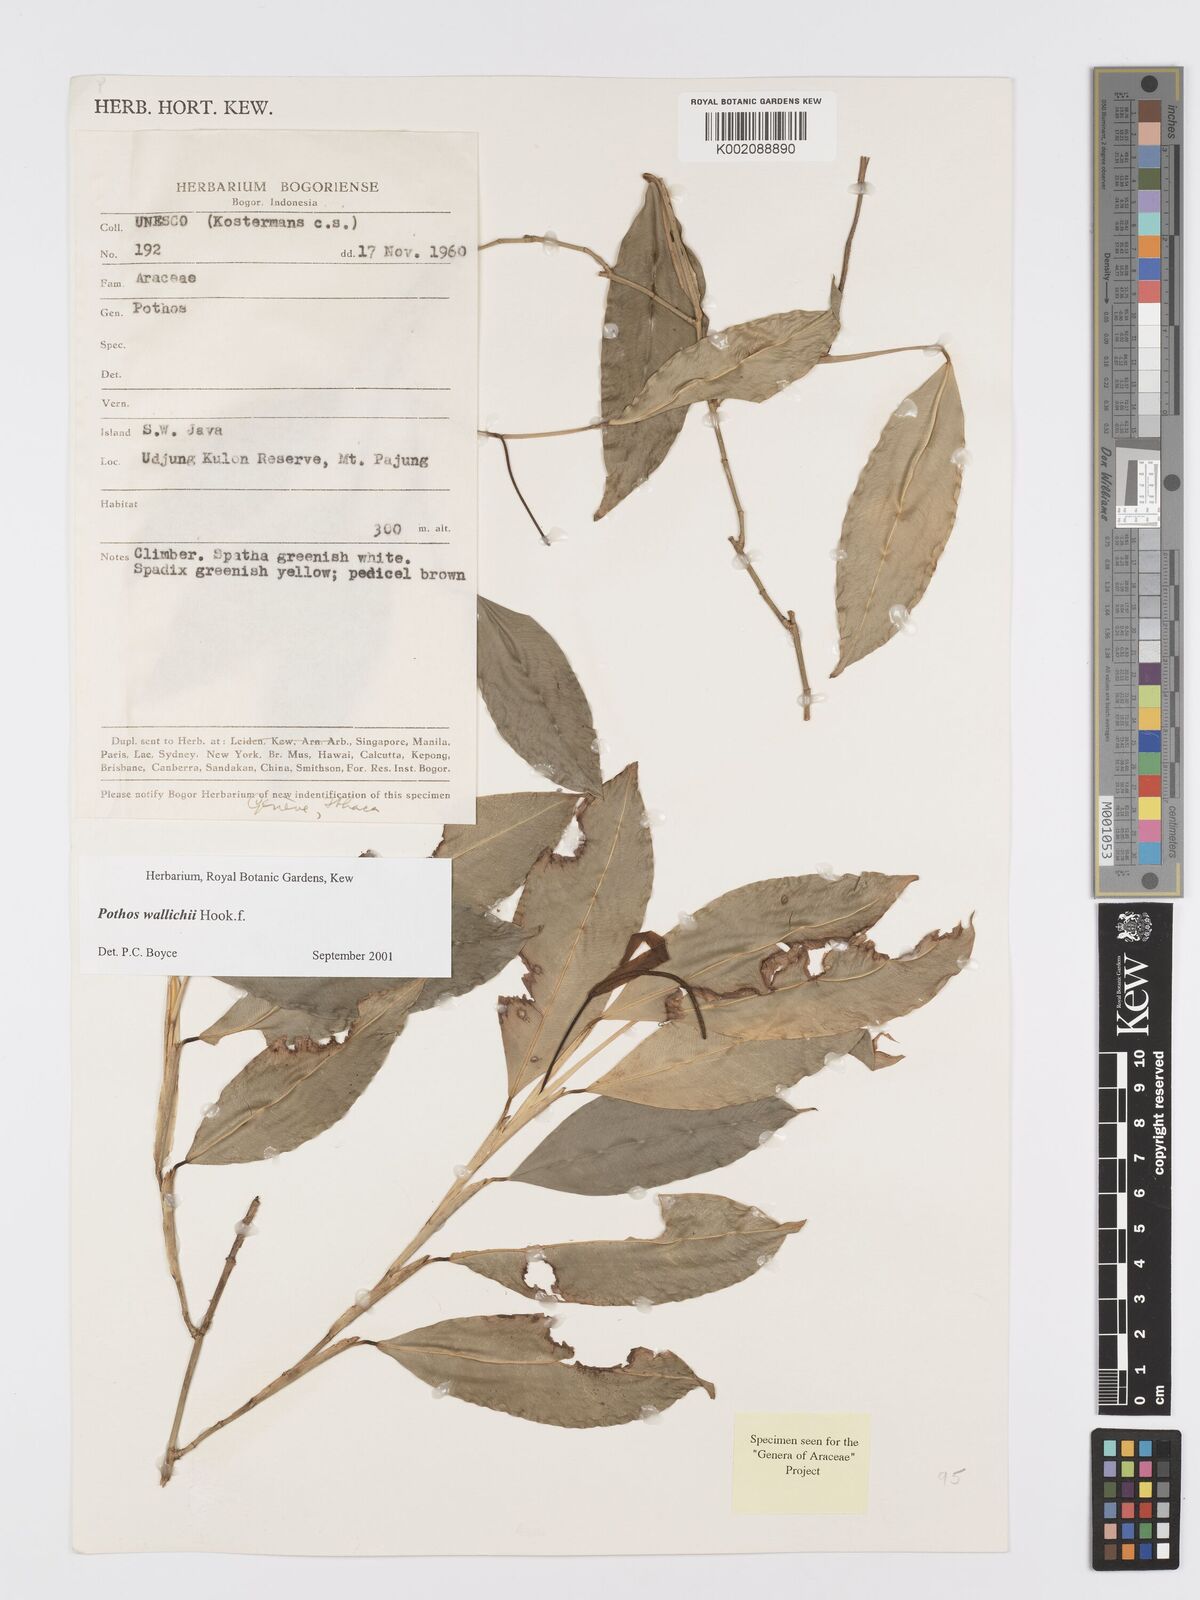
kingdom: Plantae
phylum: Tracheophyta
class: Liliopsida
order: Alismatales
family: Araceae
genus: Pothos
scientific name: Pothos wallichii
